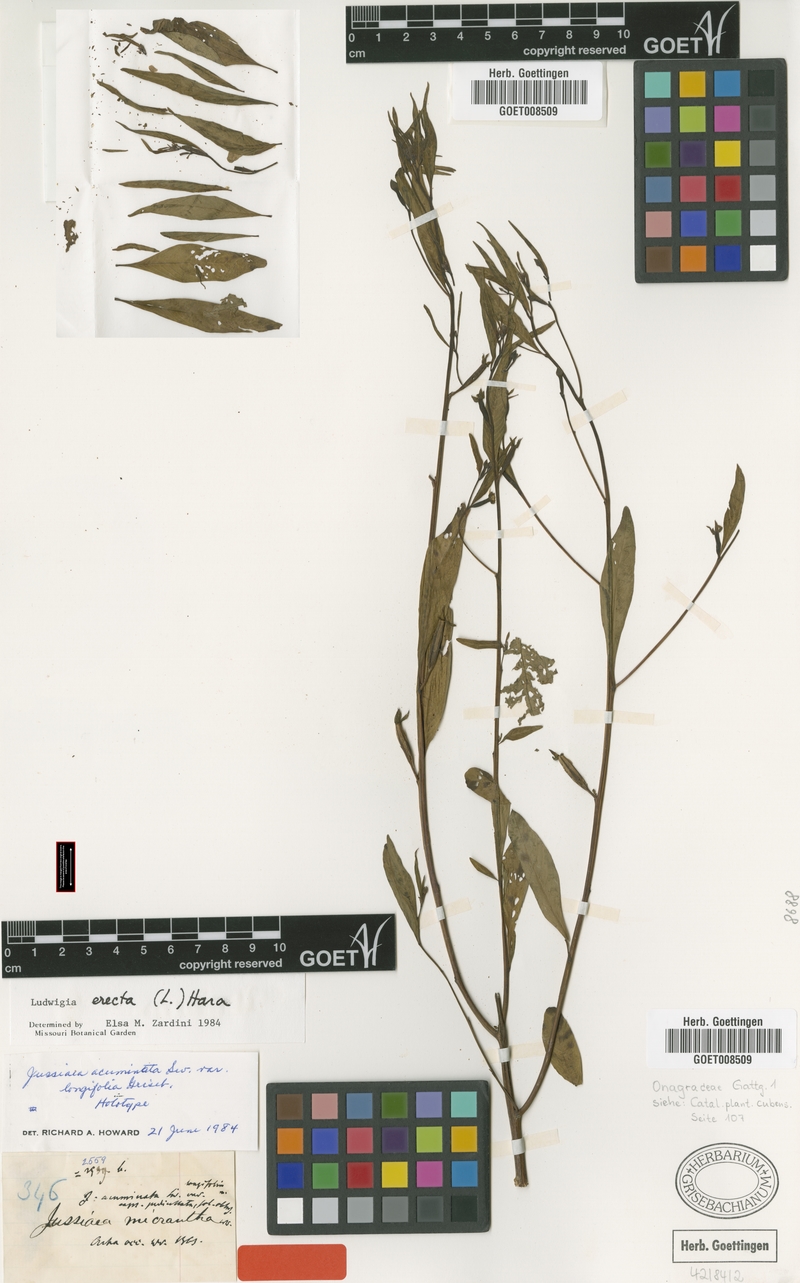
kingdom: Plantae
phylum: Tracheophyta
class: Magnoliopsida
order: Myrtales
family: Onagraceae
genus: Ludwigia
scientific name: Ludwigia erecta
